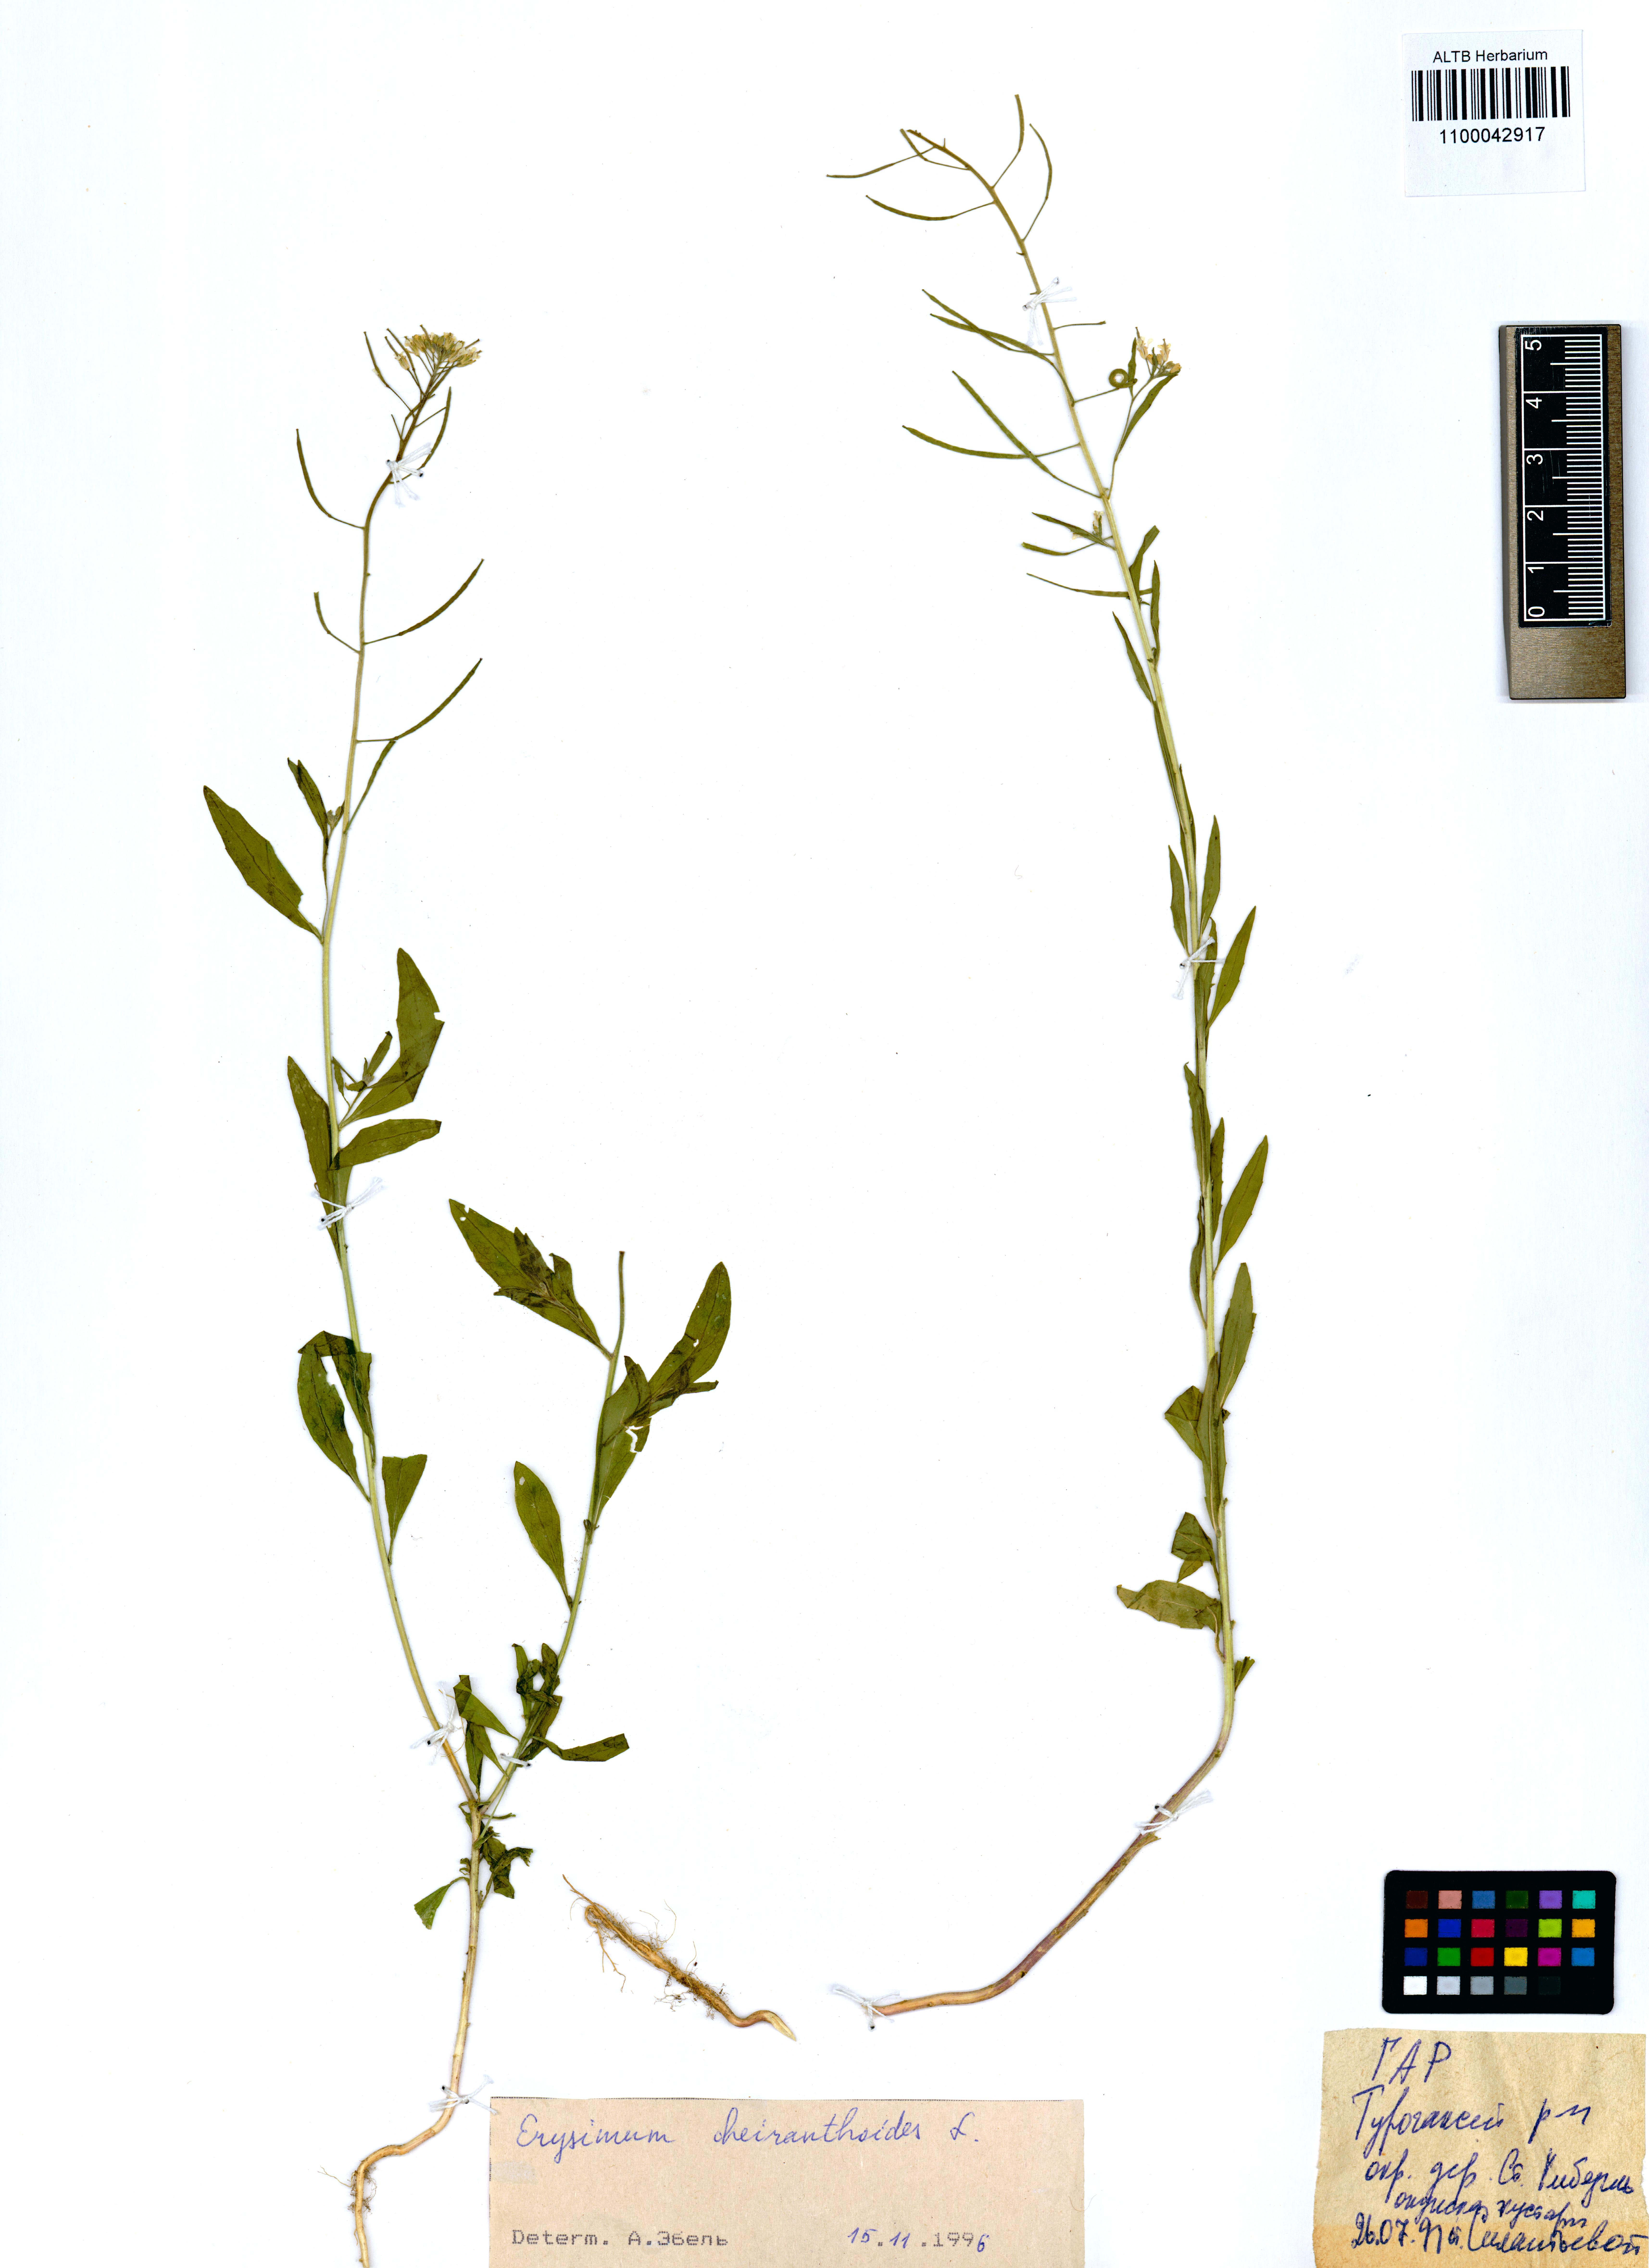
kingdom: Plantae
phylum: Tracheophyta
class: Magnoliopsida
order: Brassicales
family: Brassicaceae
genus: Erysimum
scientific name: Erysimum cheiranthoides
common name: Treacle mustard
